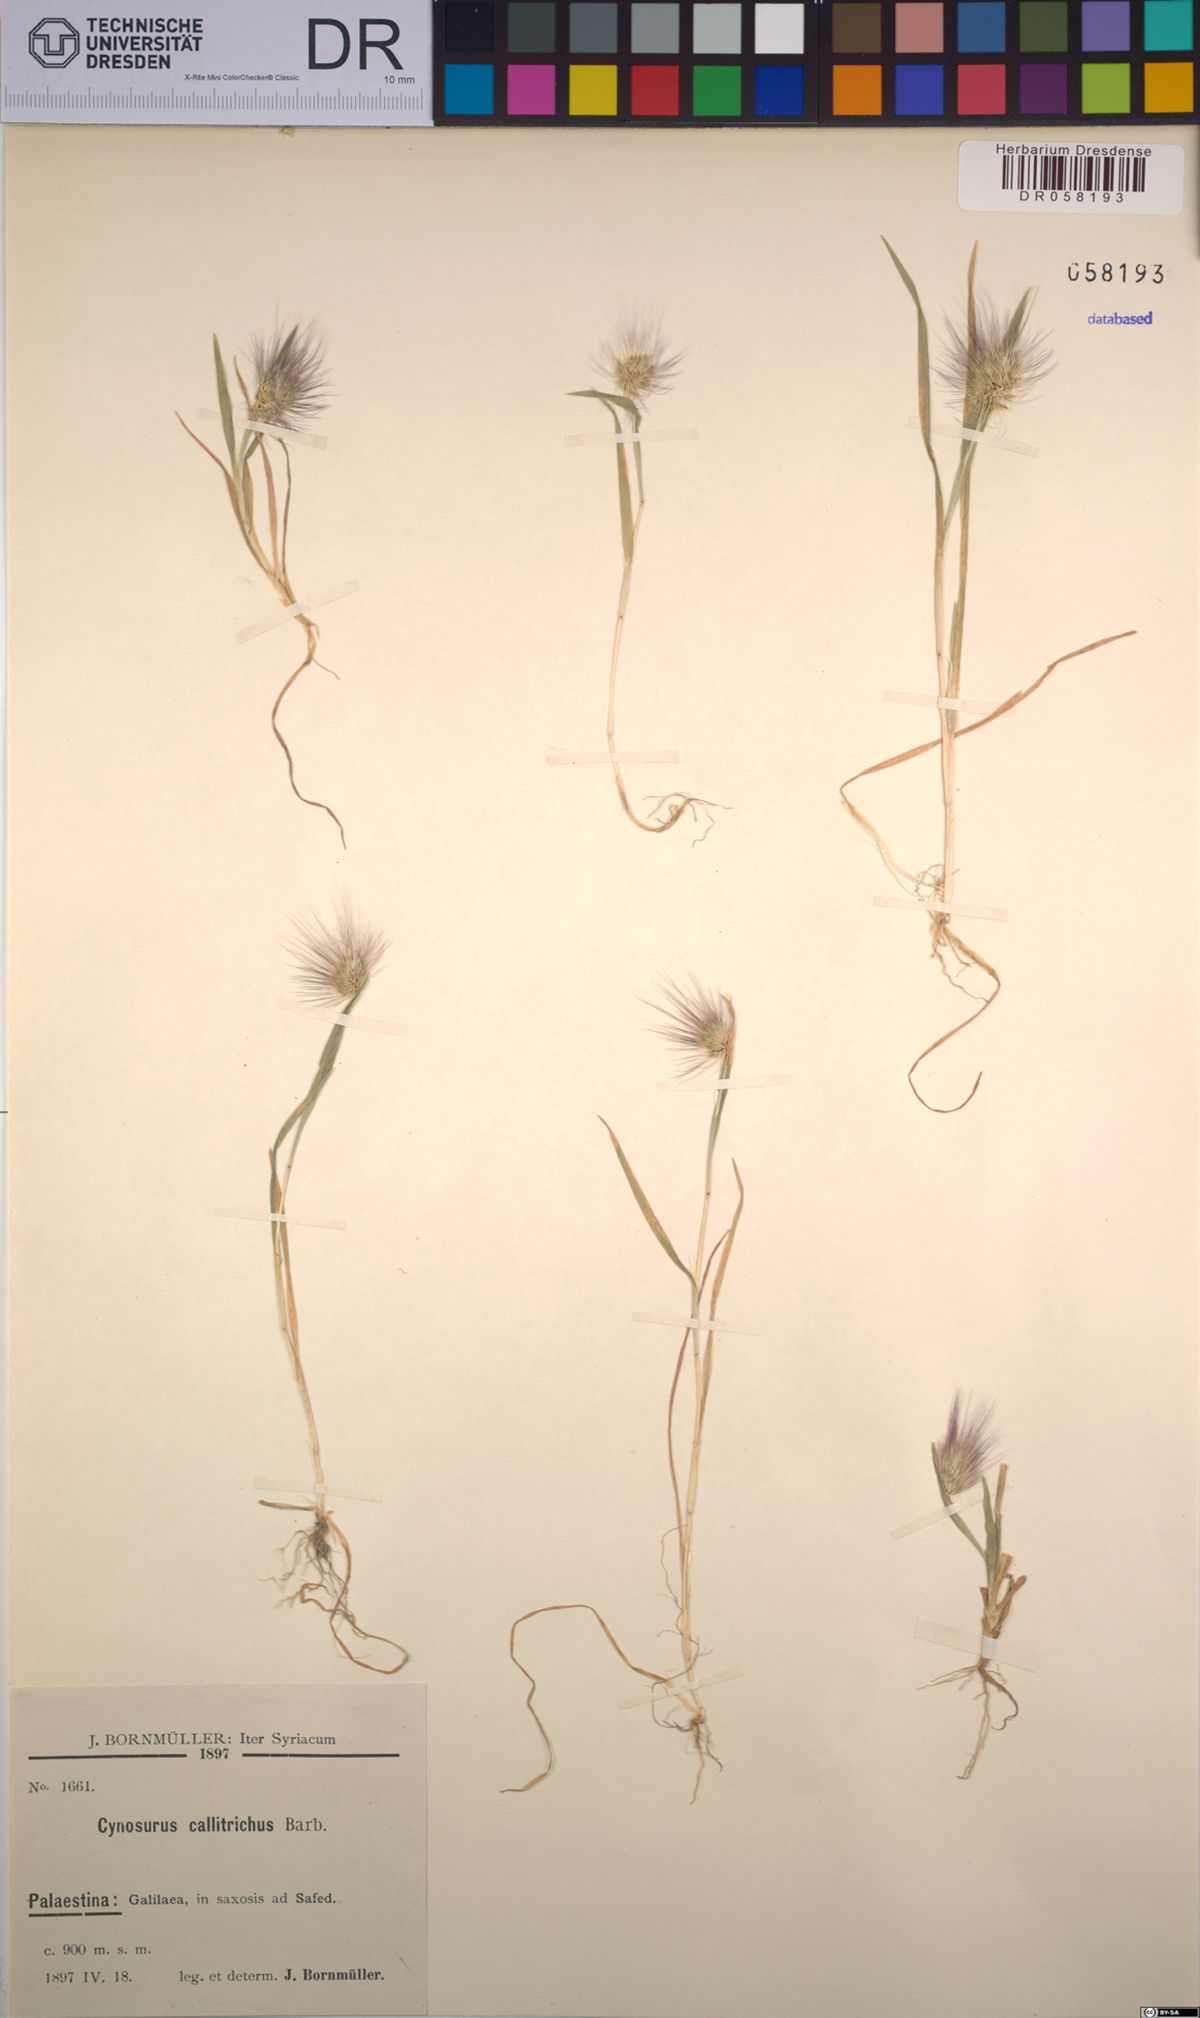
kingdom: Plantae
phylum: Tracheophyta
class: Liliopsida
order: Poales
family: Poaceae
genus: Cynosurus
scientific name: Cynosurus coloratus
